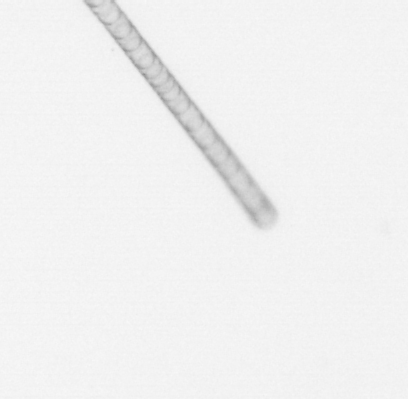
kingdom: Chromista
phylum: Ochrophyta
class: Bacillariophyceae
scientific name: Bacillariophyceae
